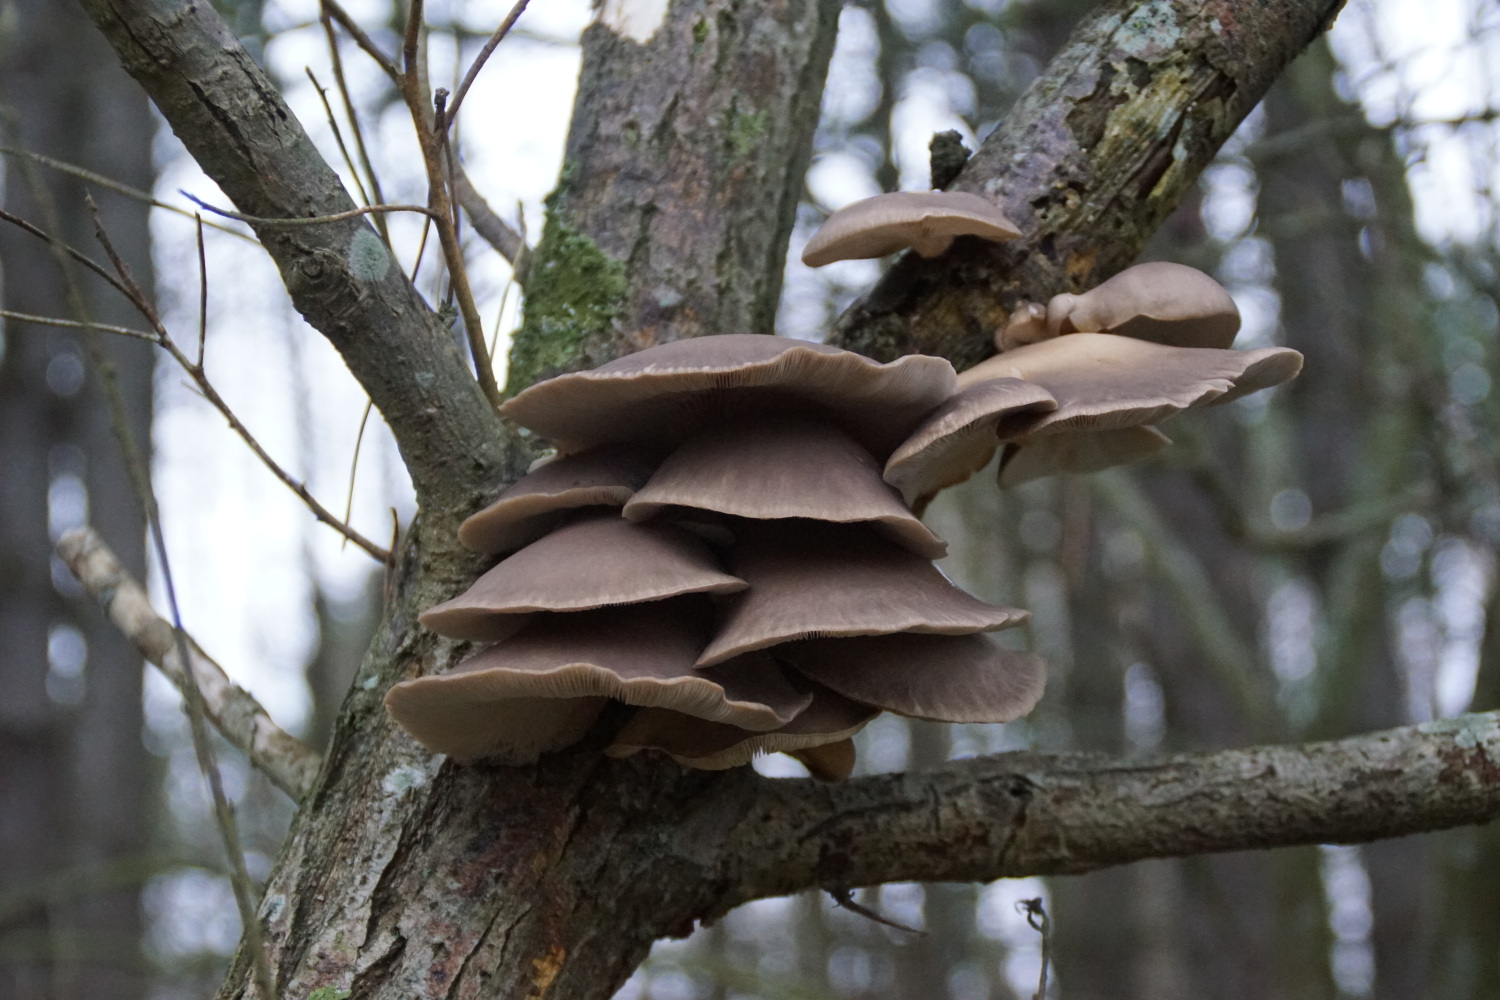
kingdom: Fungi
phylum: Basidiomycota
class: Agaricomycetes
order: Agaricales
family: Pleurotaceae
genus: Pleurotus
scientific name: Pleurotus ostreatus
